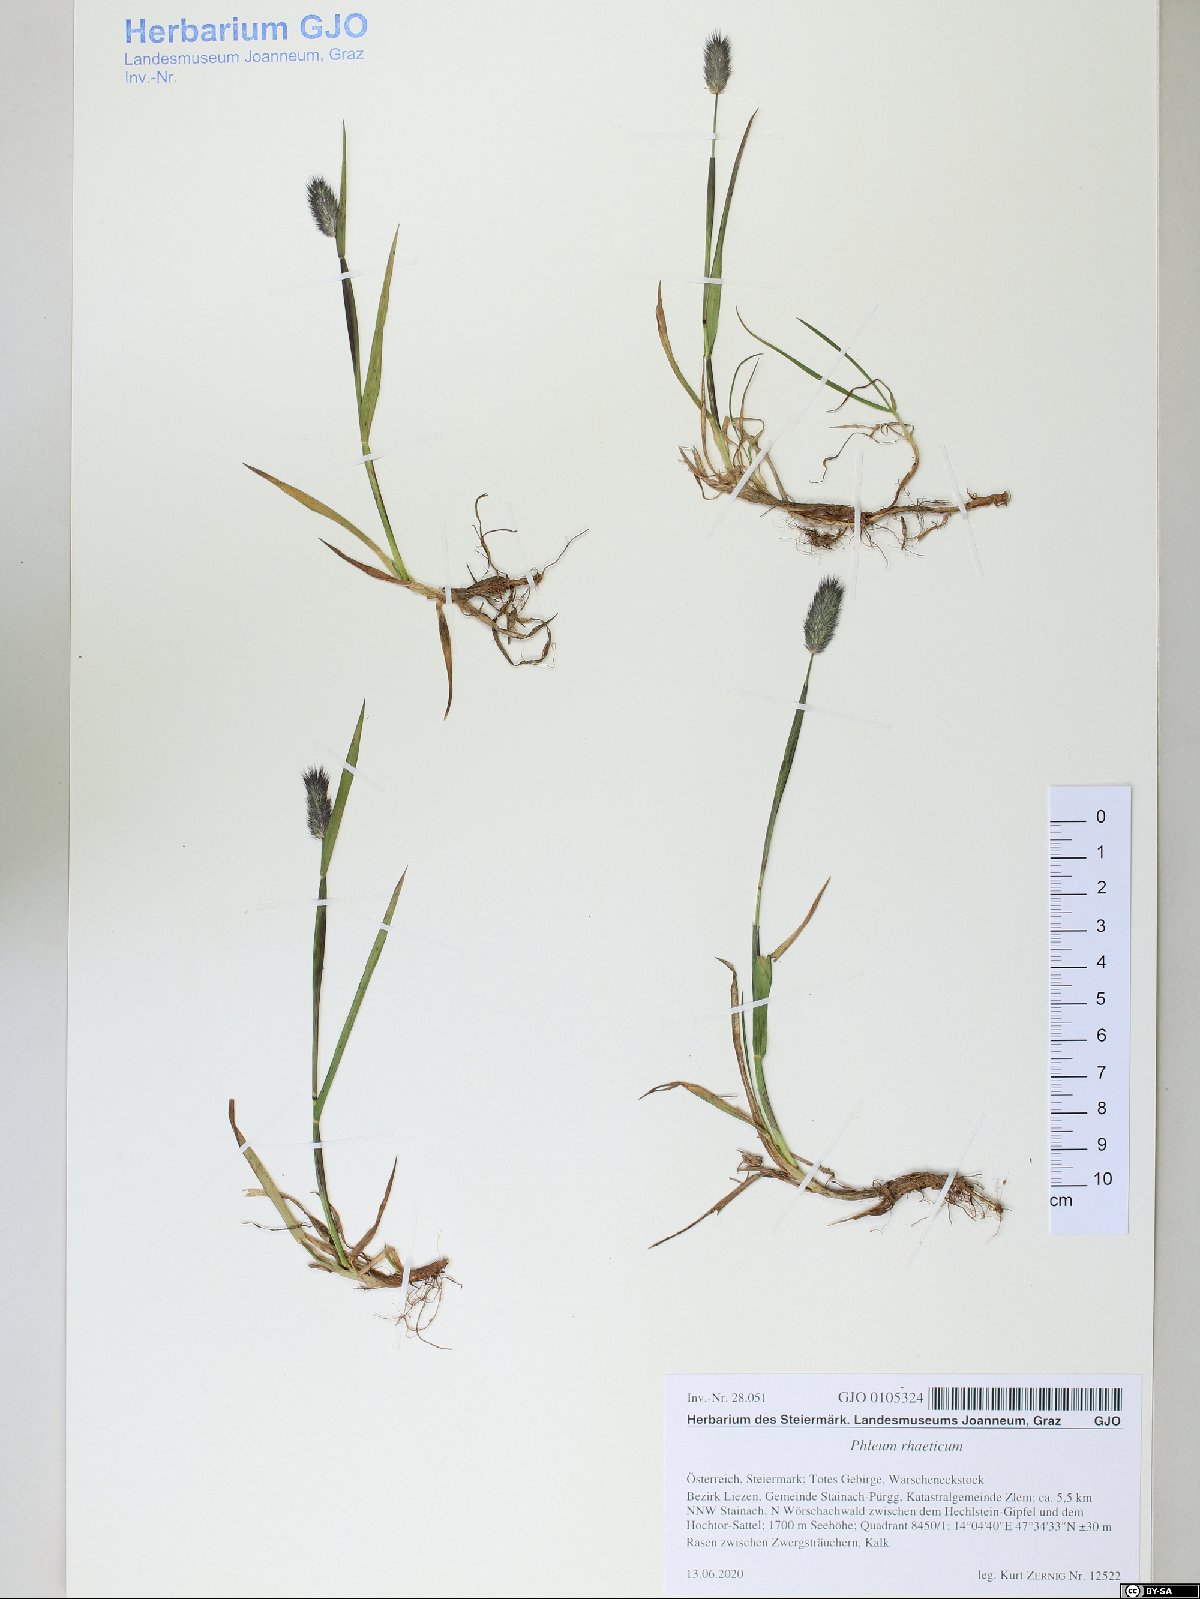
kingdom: Plantae
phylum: Tracheophyta
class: Liliopsida
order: Poales
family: Poaceae
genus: Phleum
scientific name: Phleum alpinum
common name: Alpine cat's-tail
